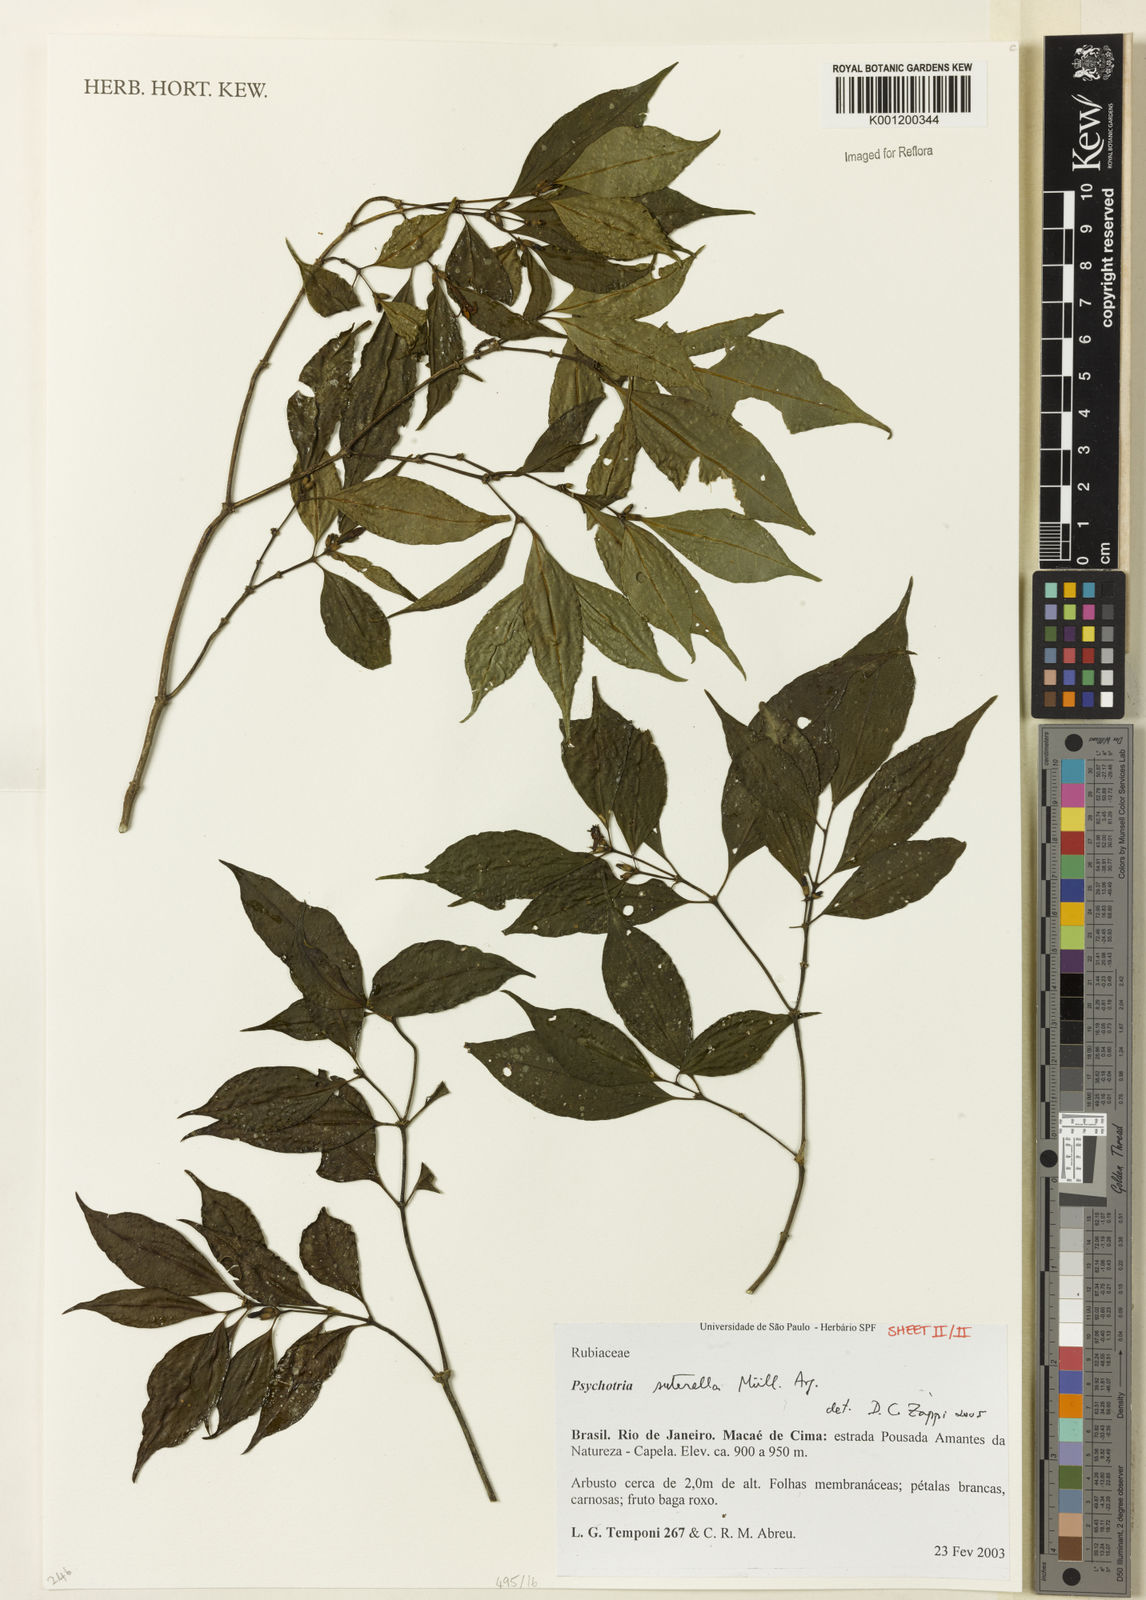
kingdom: Plantae
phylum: Tracheophyta
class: Magnoliopsida
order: Gentianales
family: Rubiaceae
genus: Psychotria
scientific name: Psychotria
